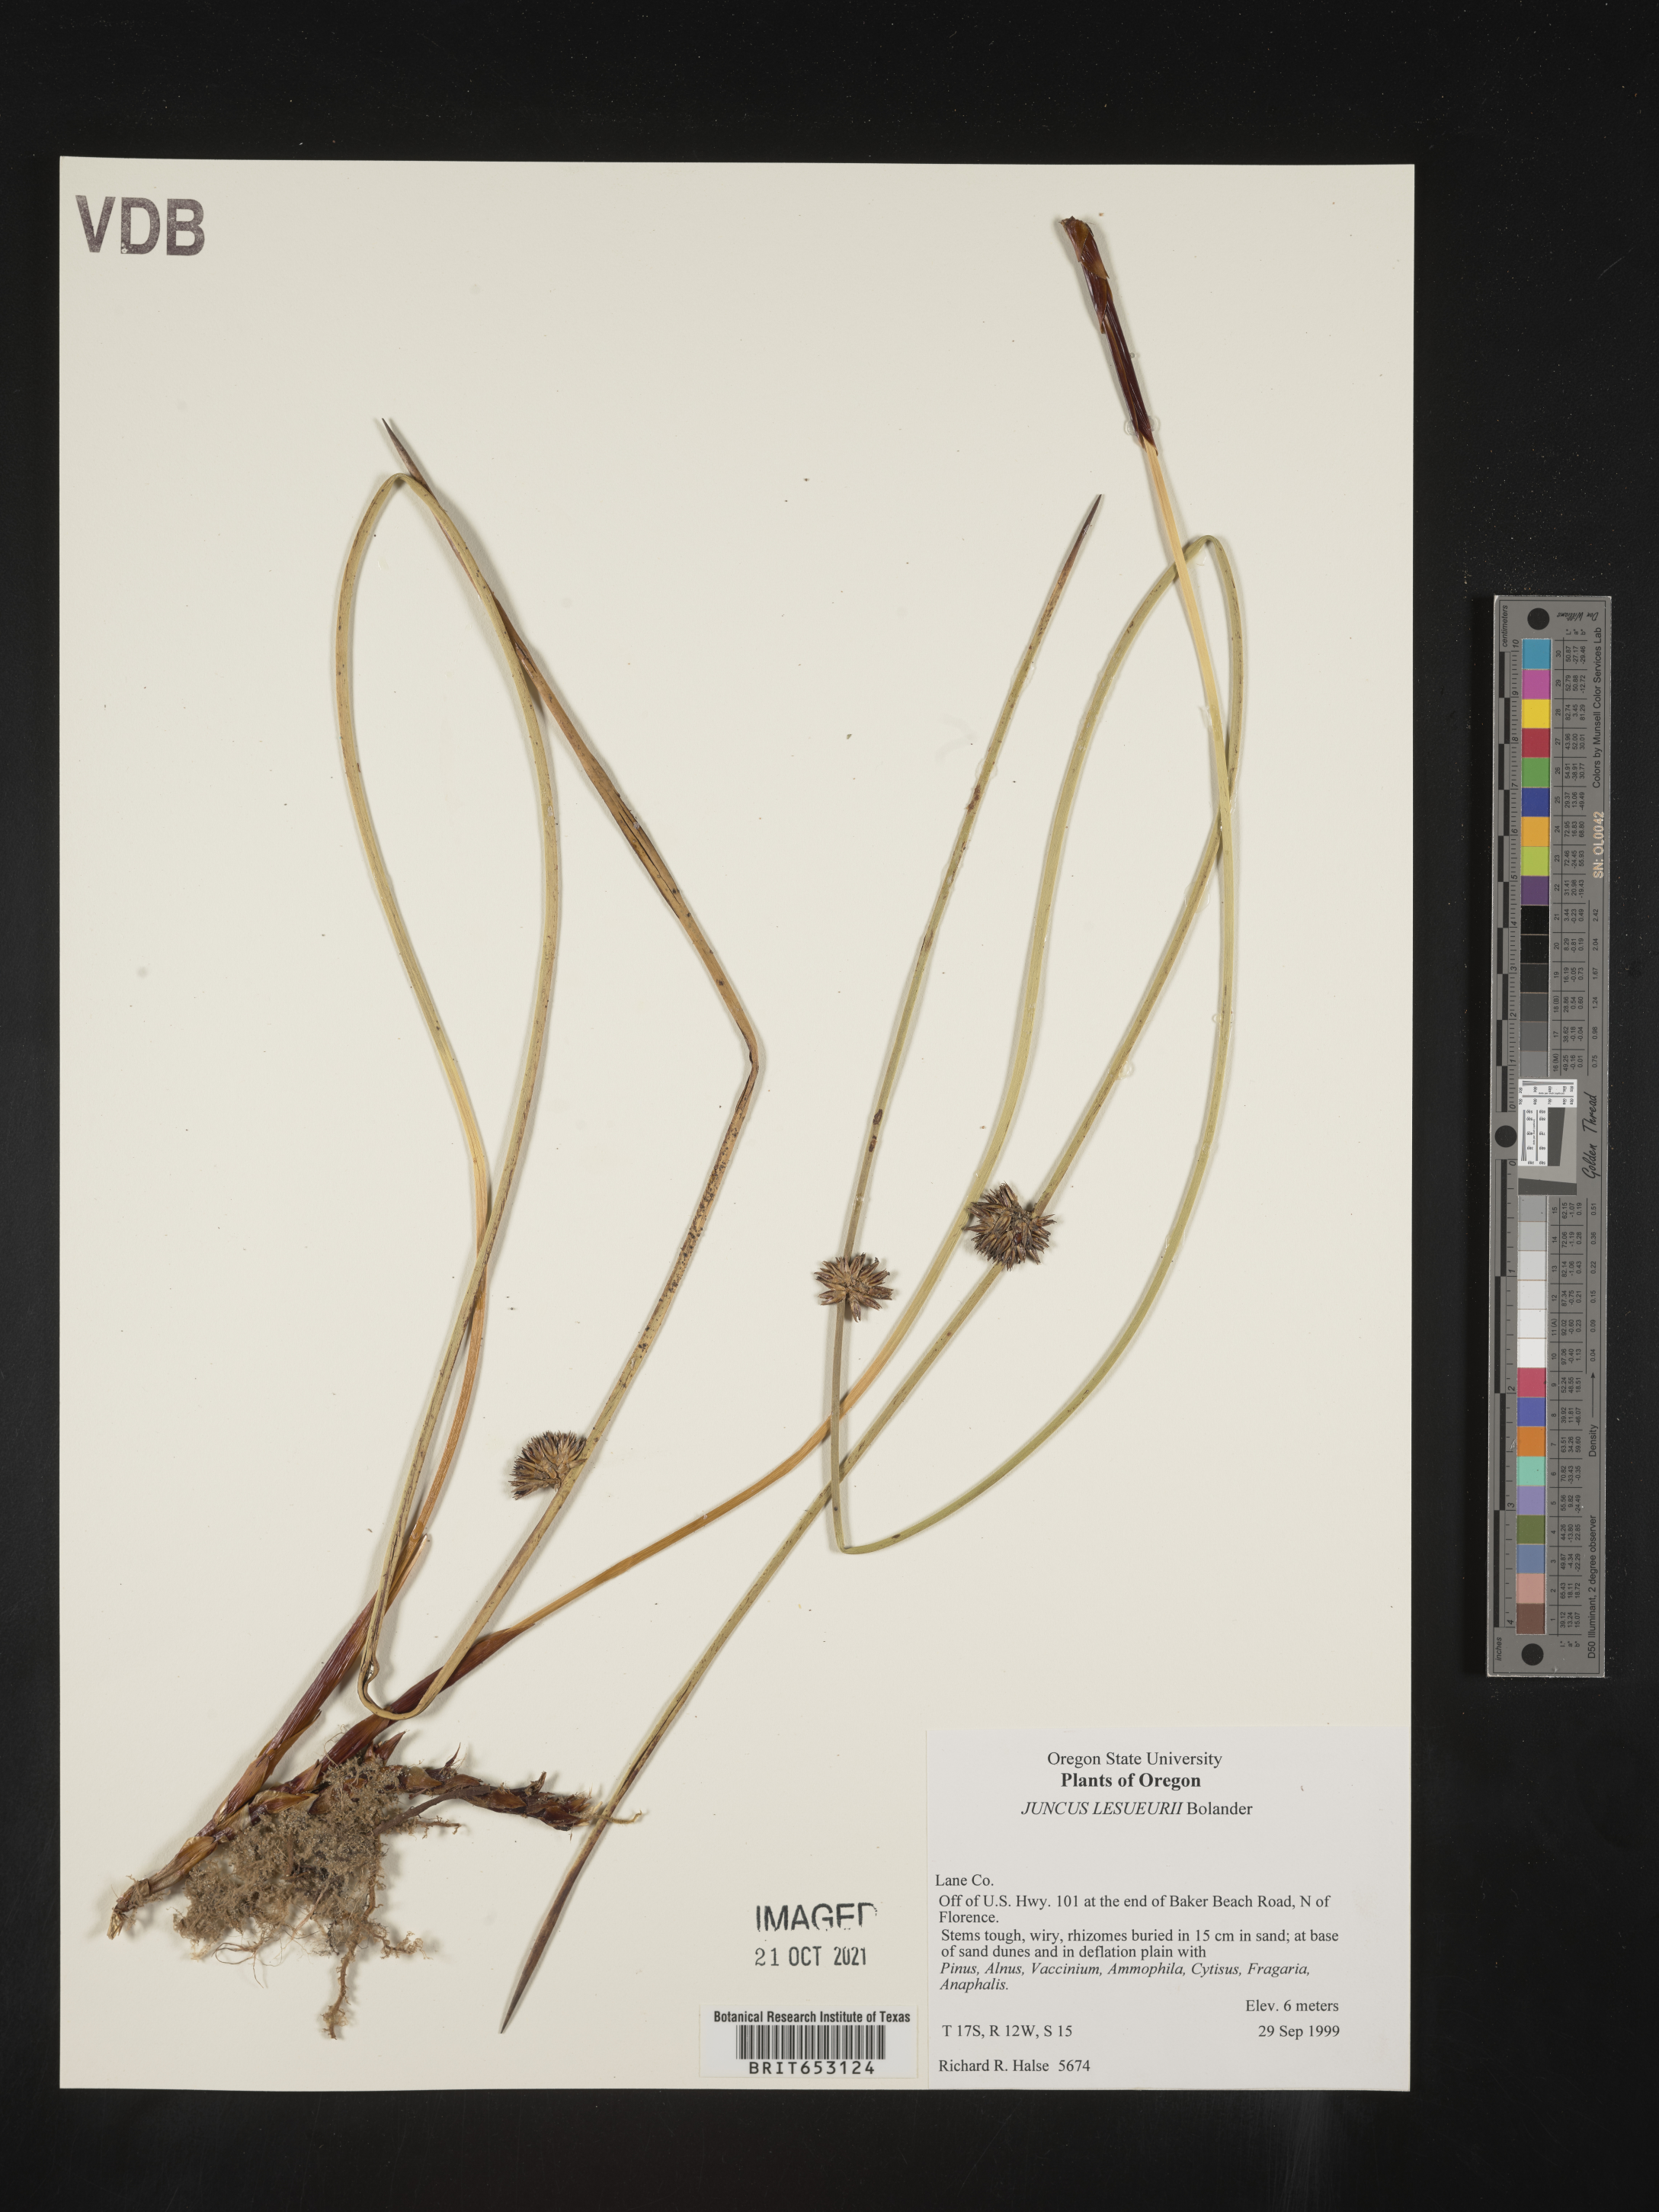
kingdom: Plantae
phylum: Tracheophyta
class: Liliopsida
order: Poales
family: Juncaceae
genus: Juncus
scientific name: Juncus lesueurii
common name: Lesueur's rush
